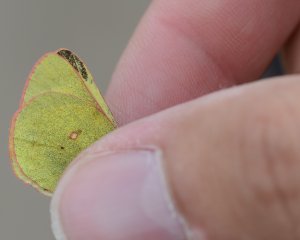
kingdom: Animalia
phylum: Arthropoda
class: Insecta
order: Lepidoptera
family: Pieridae
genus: Colias
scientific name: Colias pelidne
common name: Pelidne Sulphur
